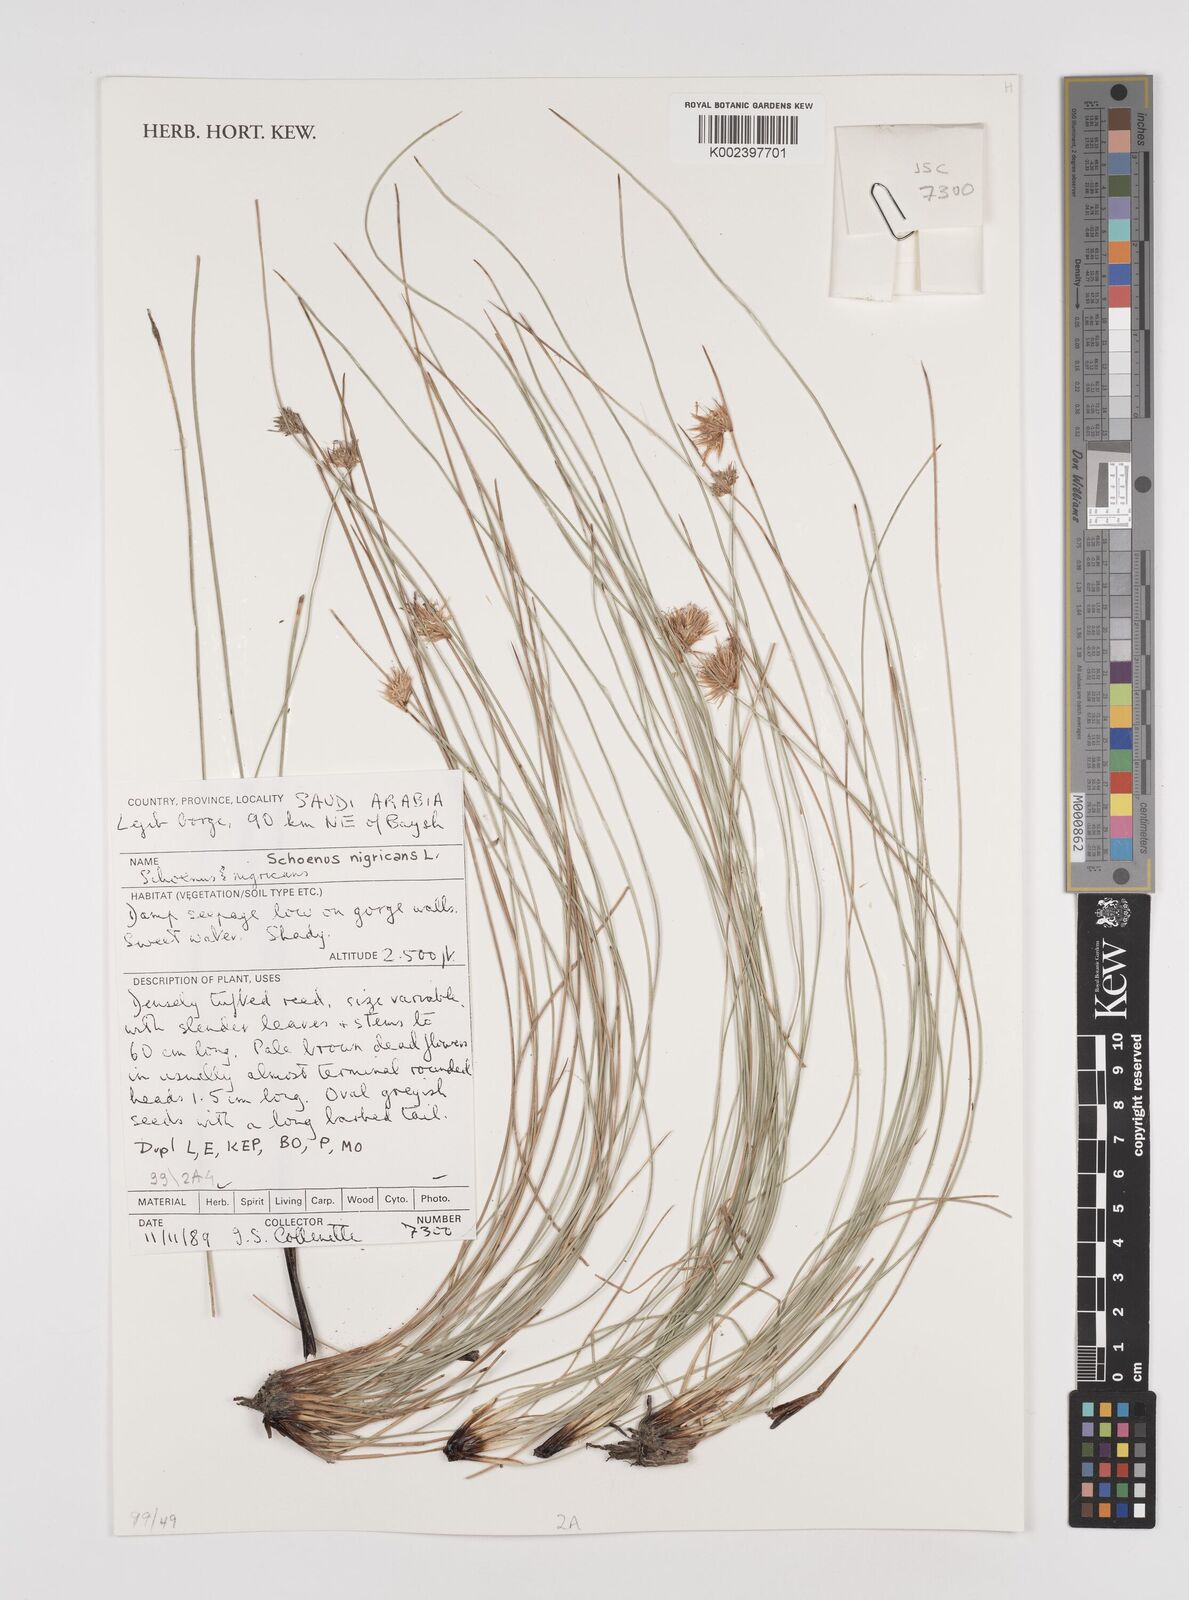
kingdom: Plantae
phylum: Tracheophyta
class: Liliopsida
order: Poales
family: Cyperaceae
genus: Schoenus
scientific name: Schoenus nigricans
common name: Black bog-rush
